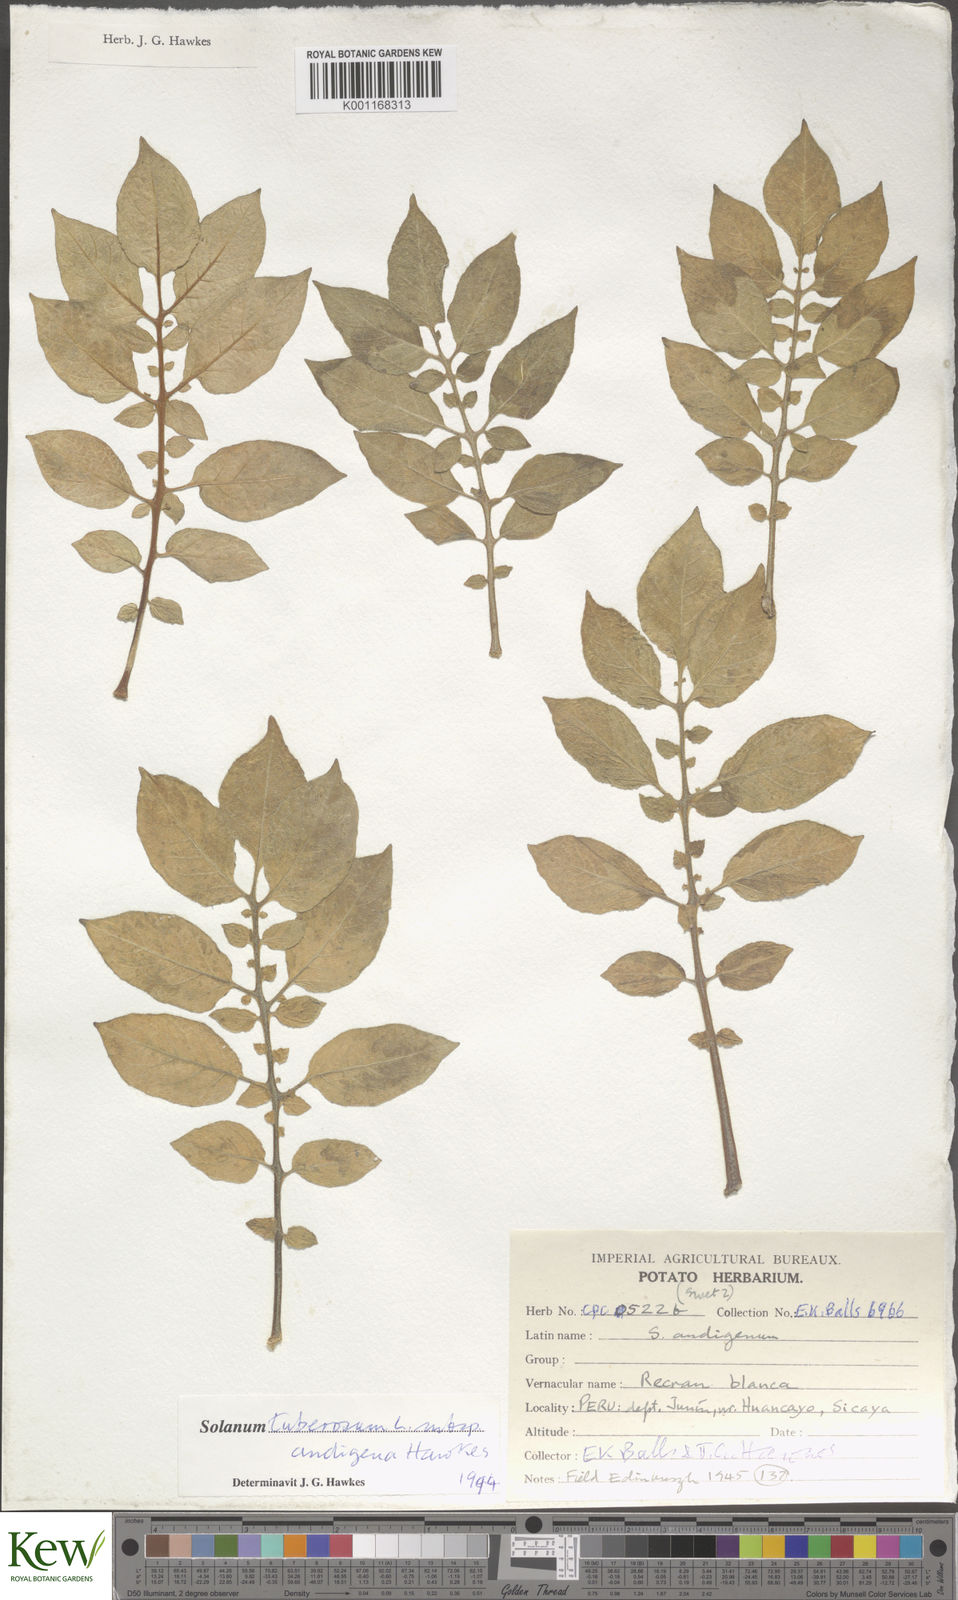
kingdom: Plantae
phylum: Tracheophyta
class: Magnoliopsida
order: Solanales
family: Solanaceae
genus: Solanum
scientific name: Solanum tuberosum
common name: Potato
